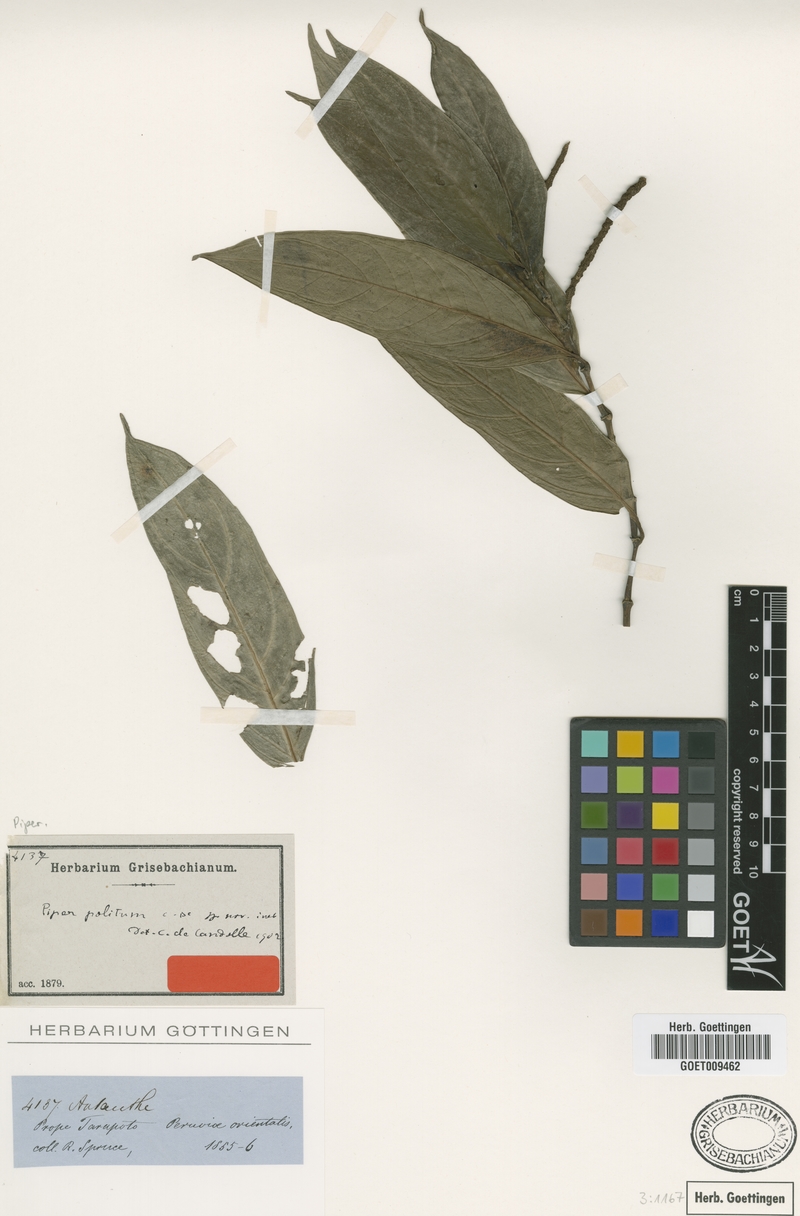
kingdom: Plantae
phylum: Tracheophyta
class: Magnoliopsida
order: Piperales
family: Piperaceae
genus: Piper
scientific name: Piper politum
